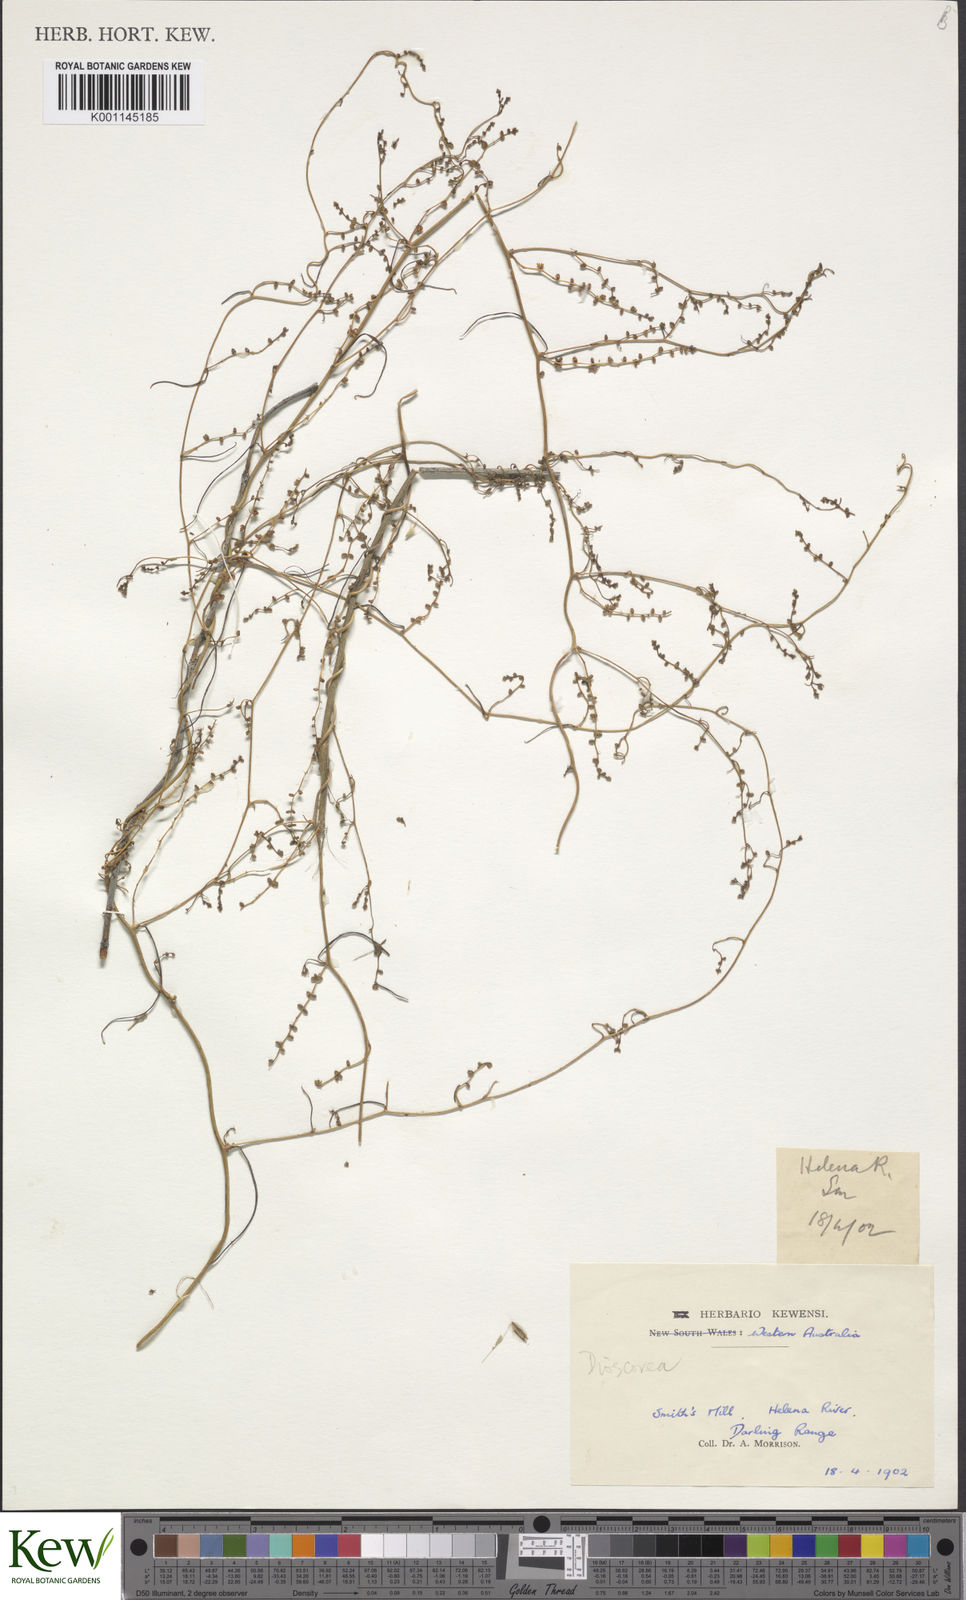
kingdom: Plantae
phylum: Tracheophyta
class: Liliopsida
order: Dioscoreales
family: Dioscoreaceae
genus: Dioscorea
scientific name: Dioscorea
